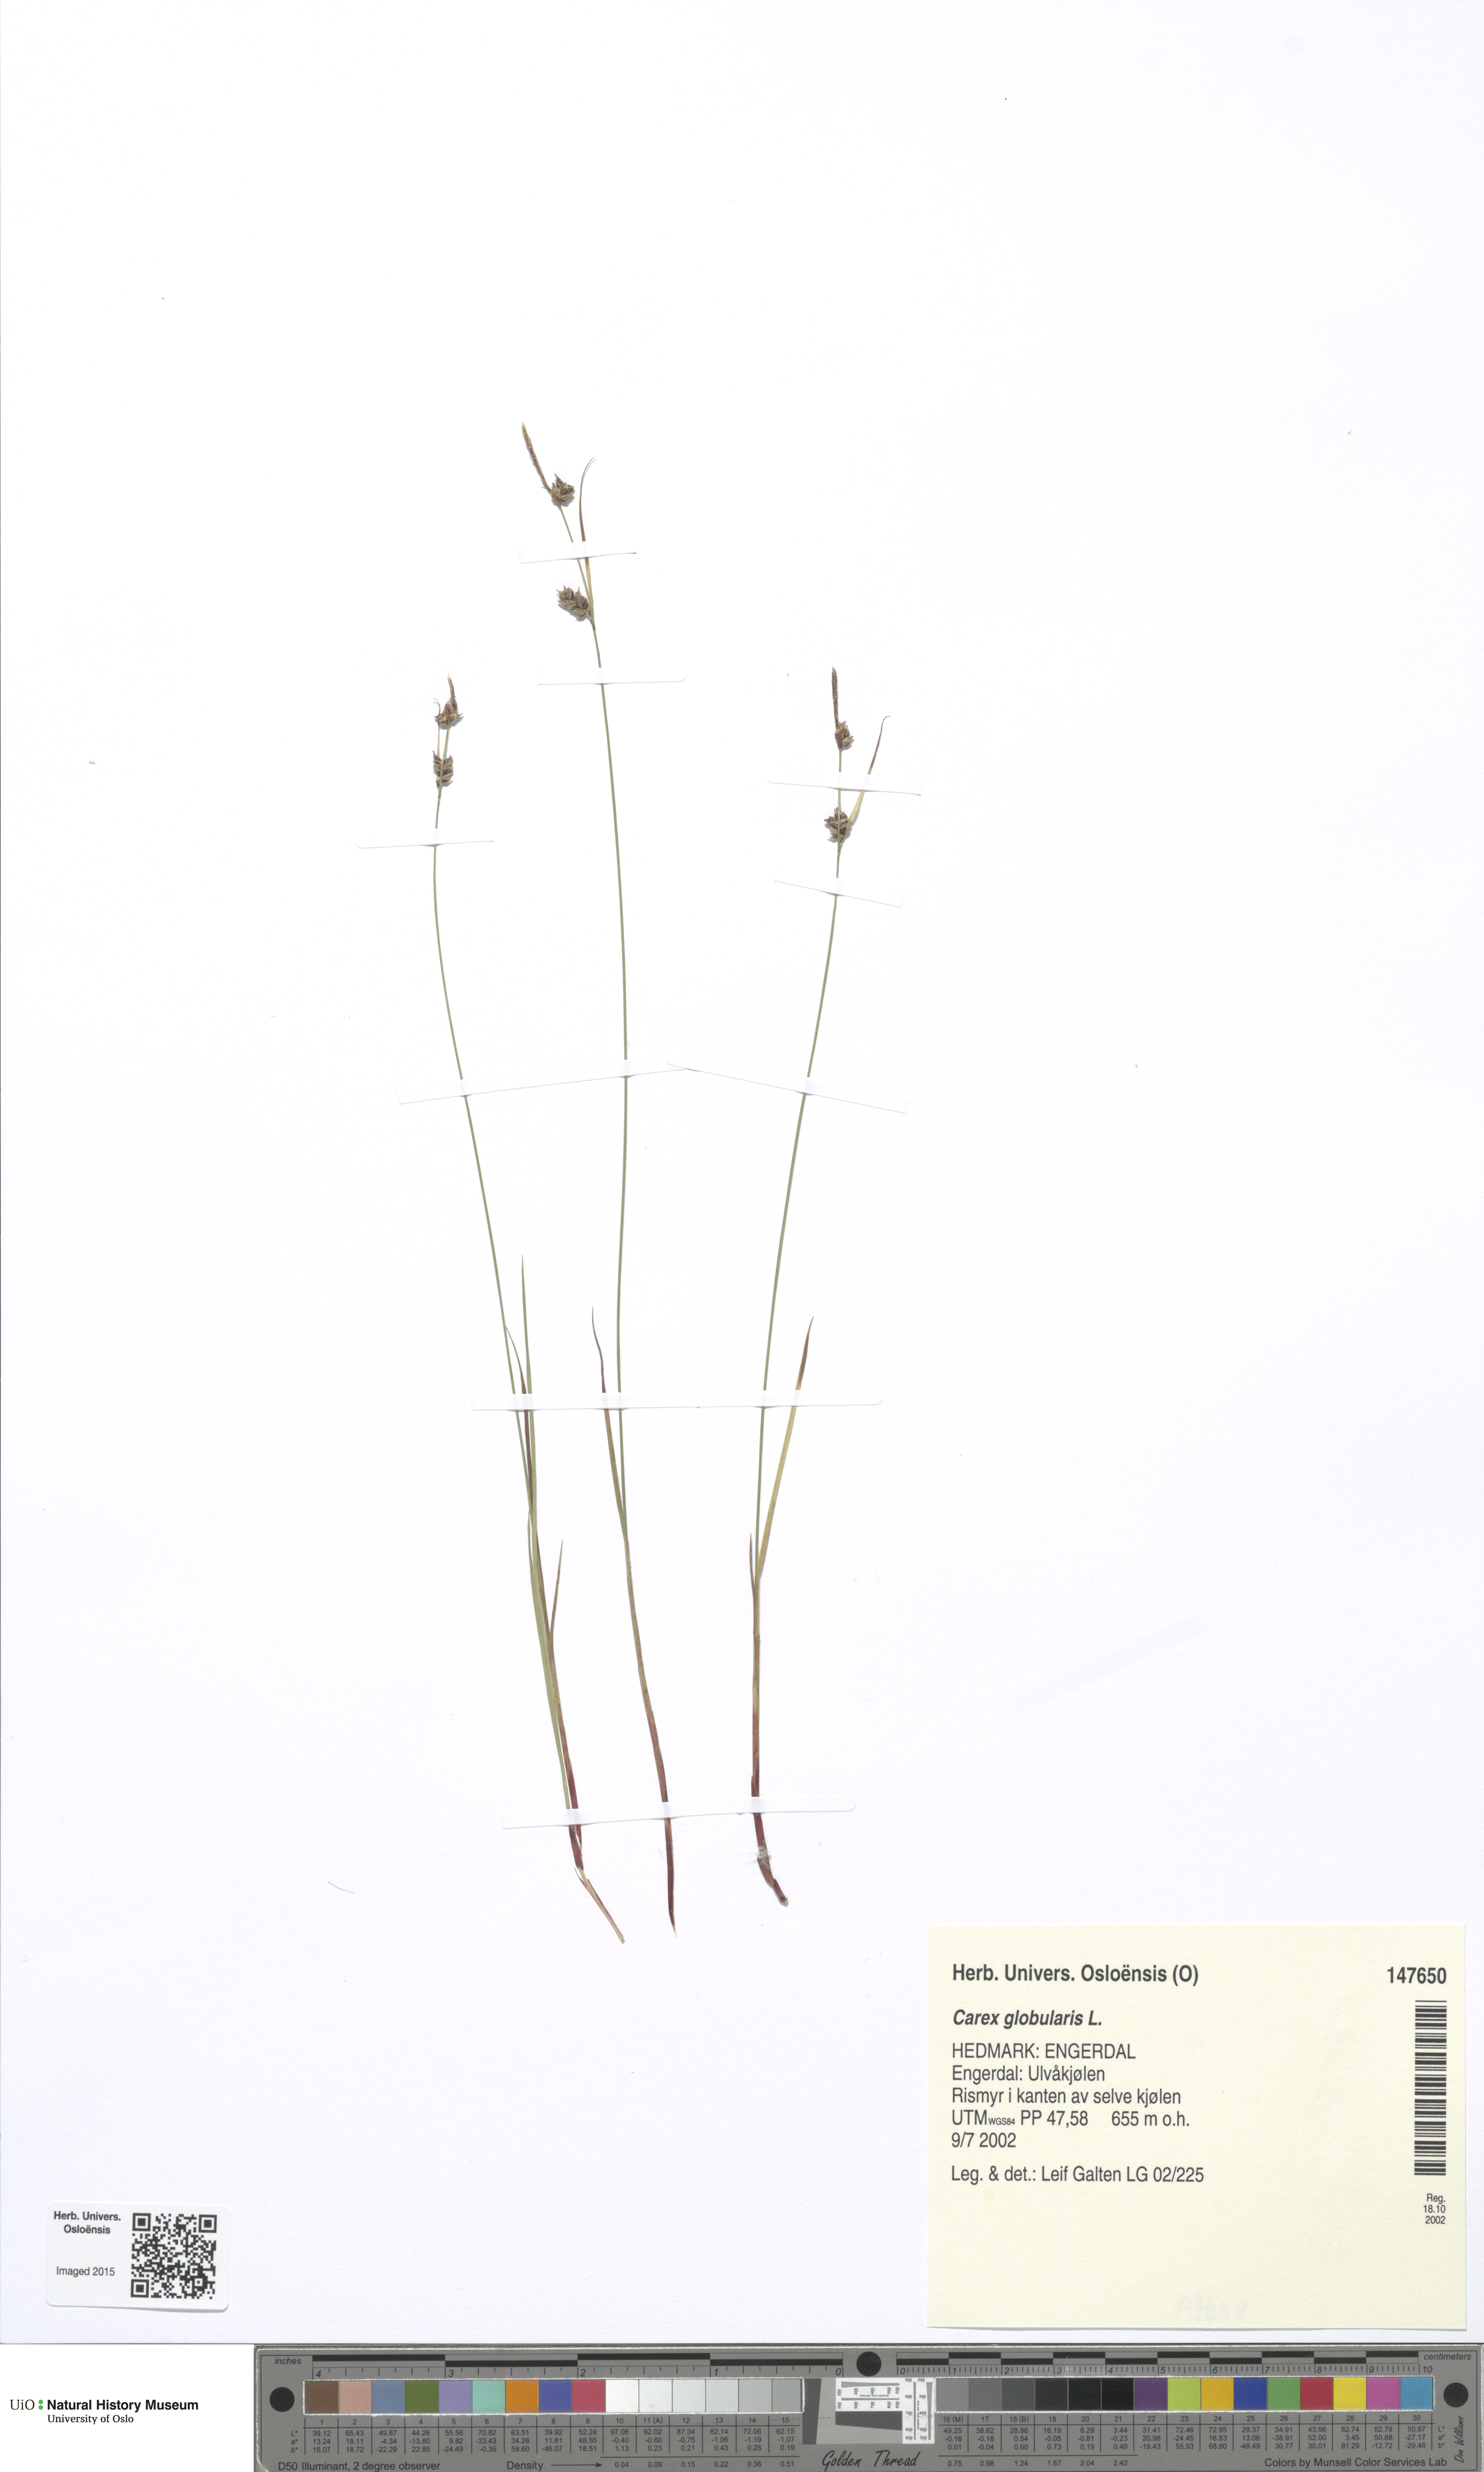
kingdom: Plantae
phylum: Tracheophyta
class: Liliopsida
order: Poales
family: Cyperaceae
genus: Carex
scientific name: Carex globularis
